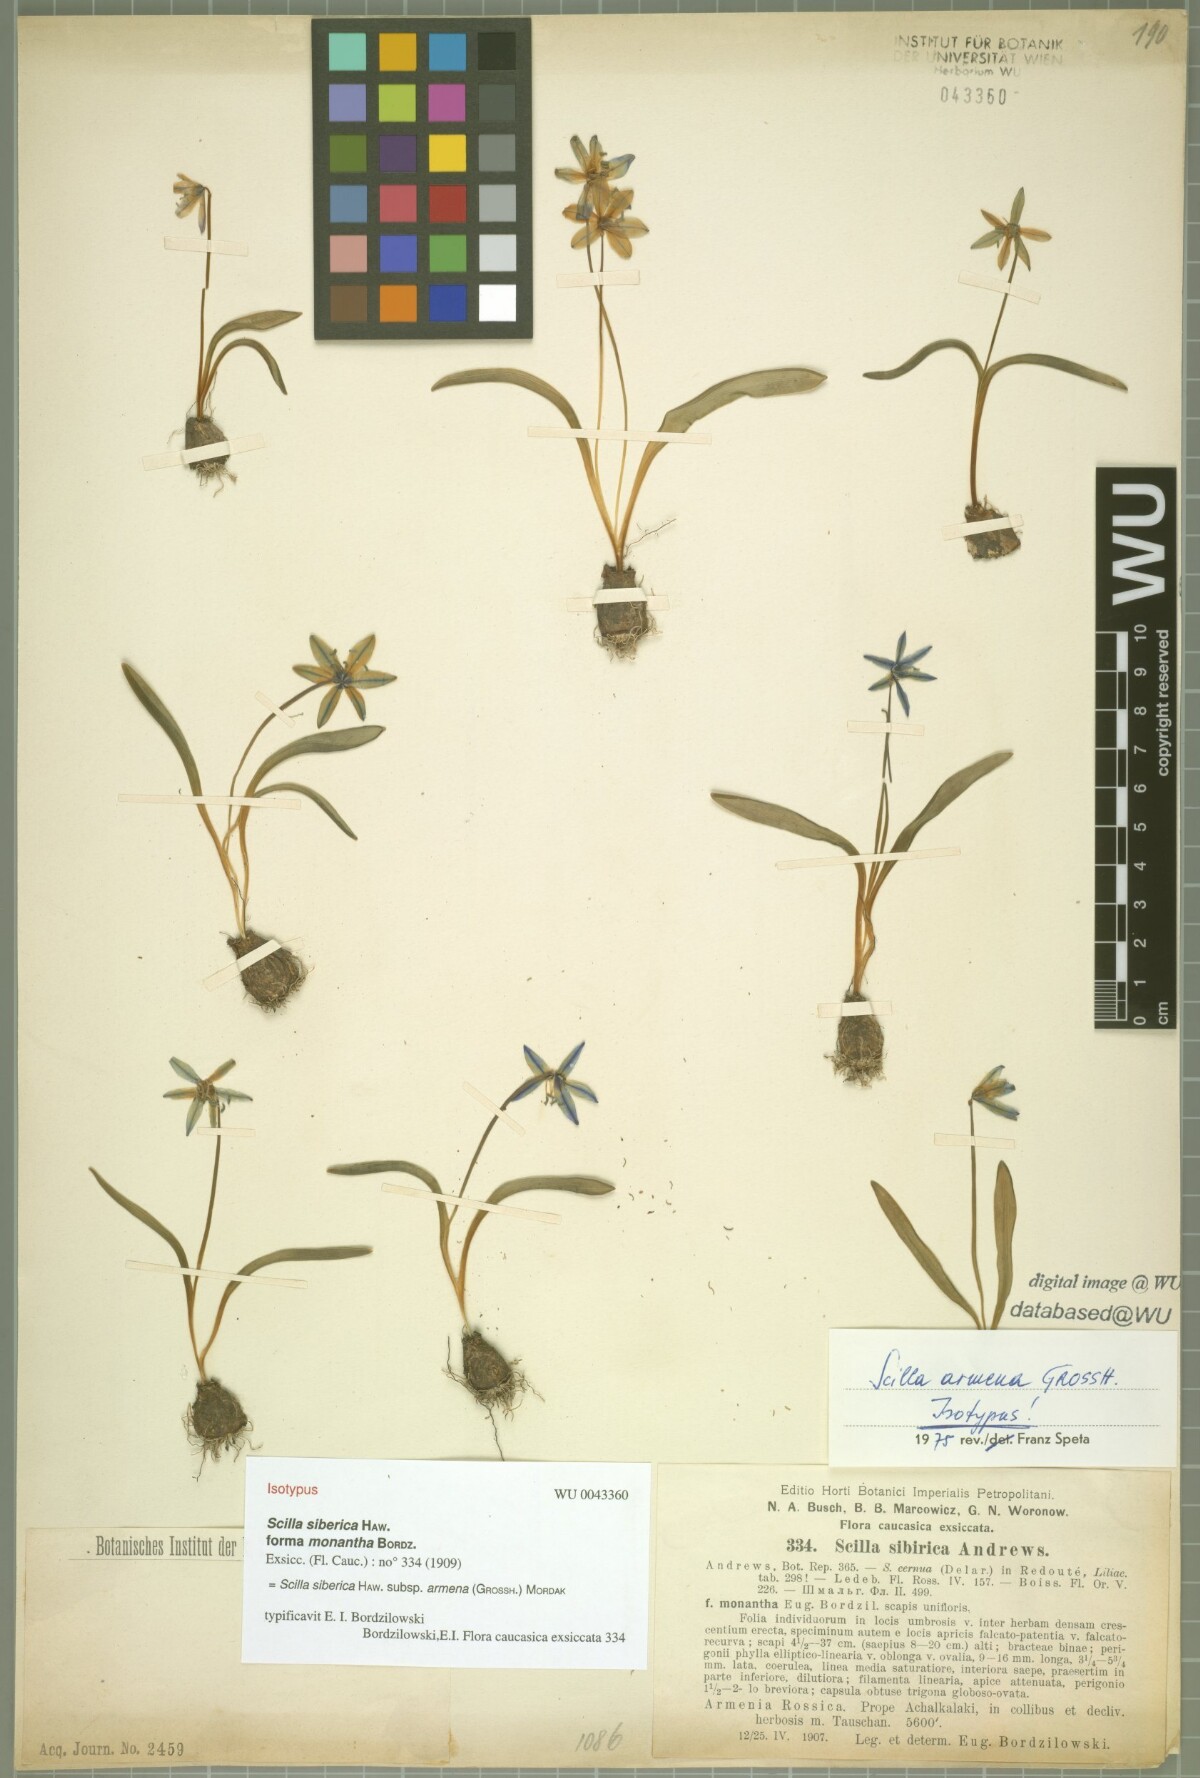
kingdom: Plantae
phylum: Tracheophyta
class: Liliopsida
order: Asparagales
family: Asparagaceae
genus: Scilla
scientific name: Scilla siberica
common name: Siberian squill
